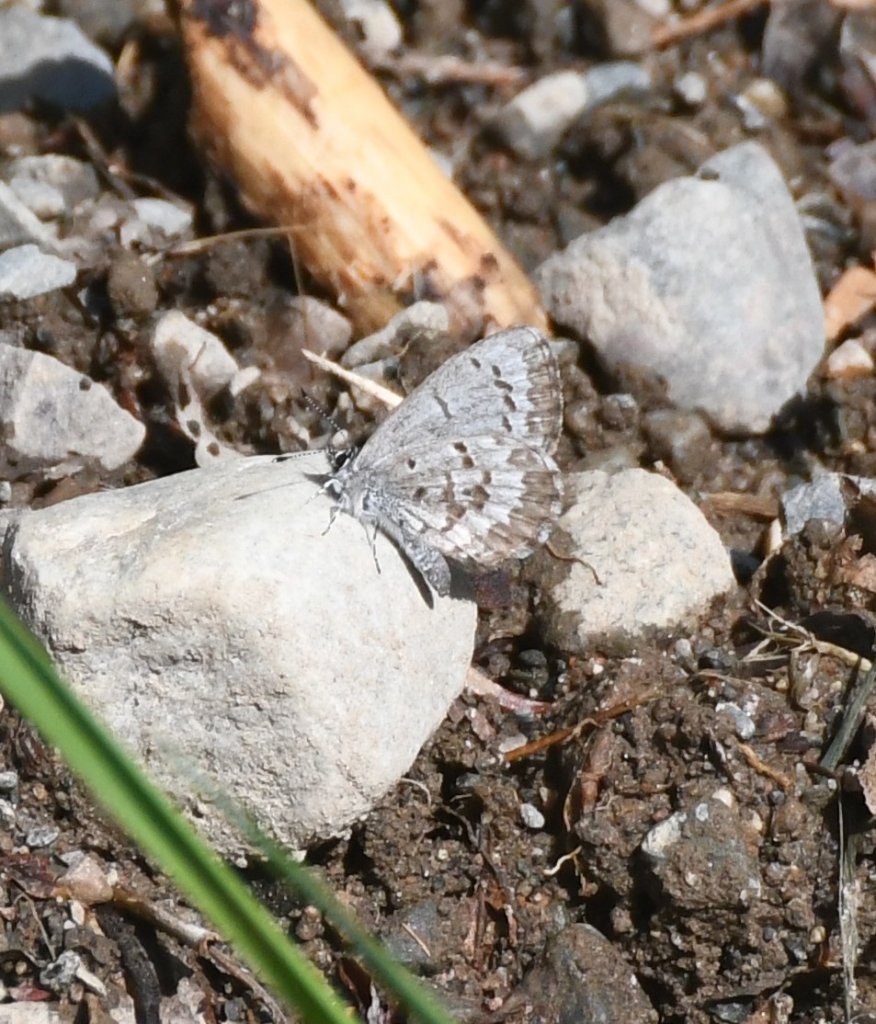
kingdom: Animalia
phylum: Arthropoda
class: Insecta
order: Lepidoptera
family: Lycaenidae
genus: Celastrina
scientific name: Celastrina lucia
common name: Northern Spring Azure
